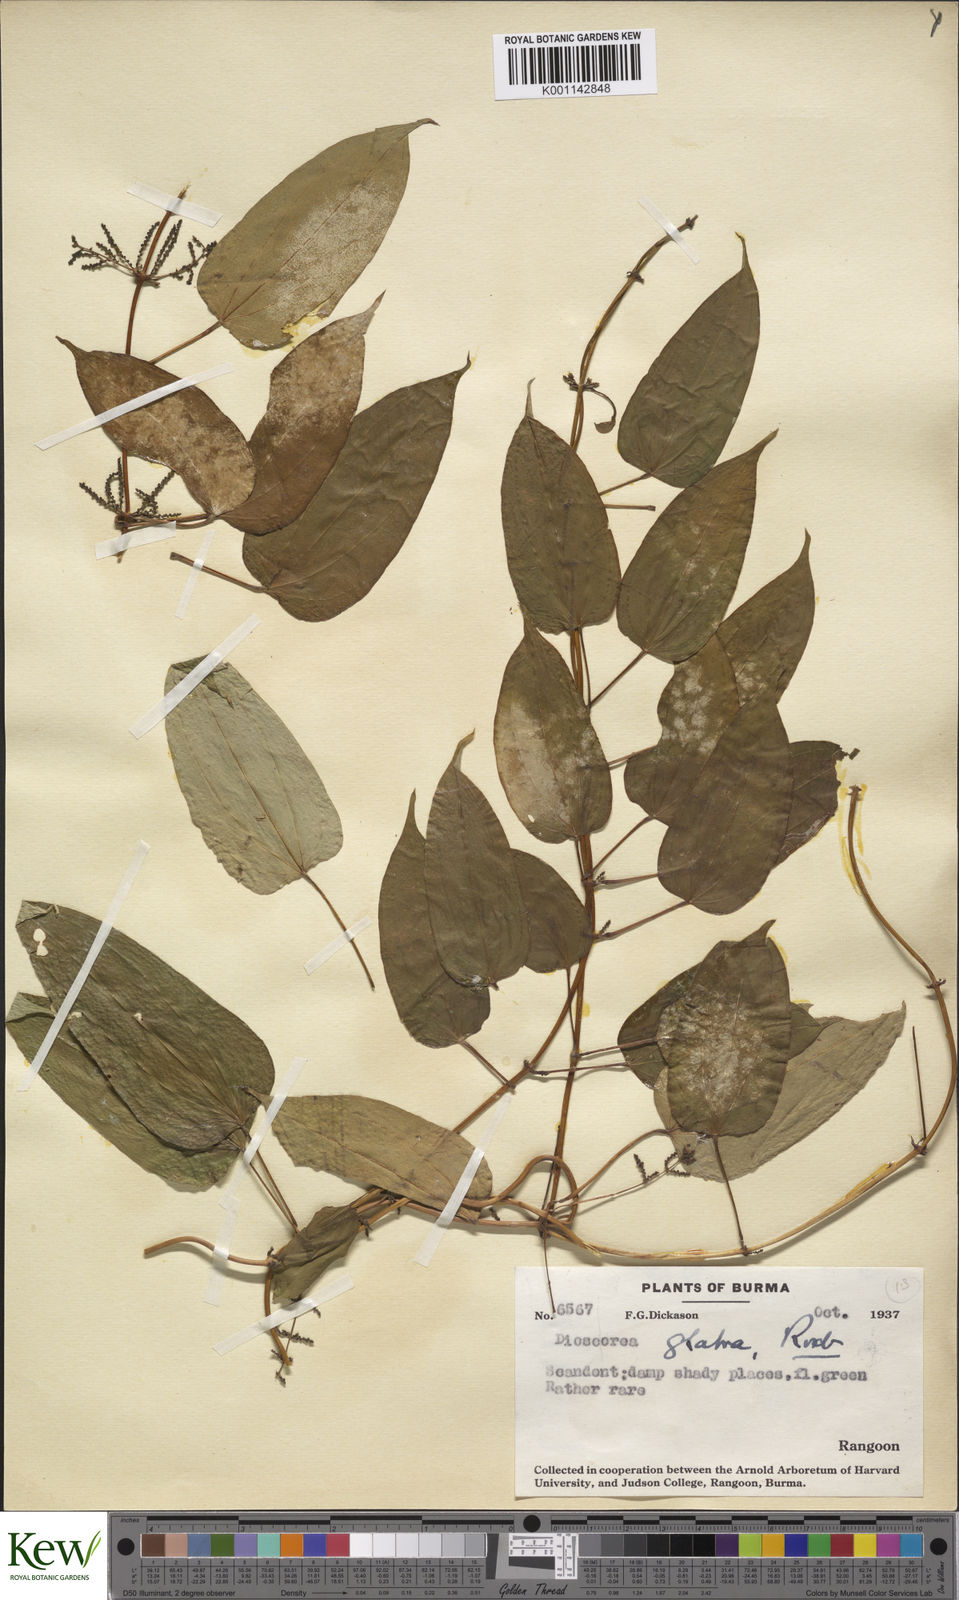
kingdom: Plantae
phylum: Tracheophyta
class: Liliopsida
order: Dioscoreales
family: Dioscoreaceae
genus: Dioscorea
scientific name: Dioscorea glabra
